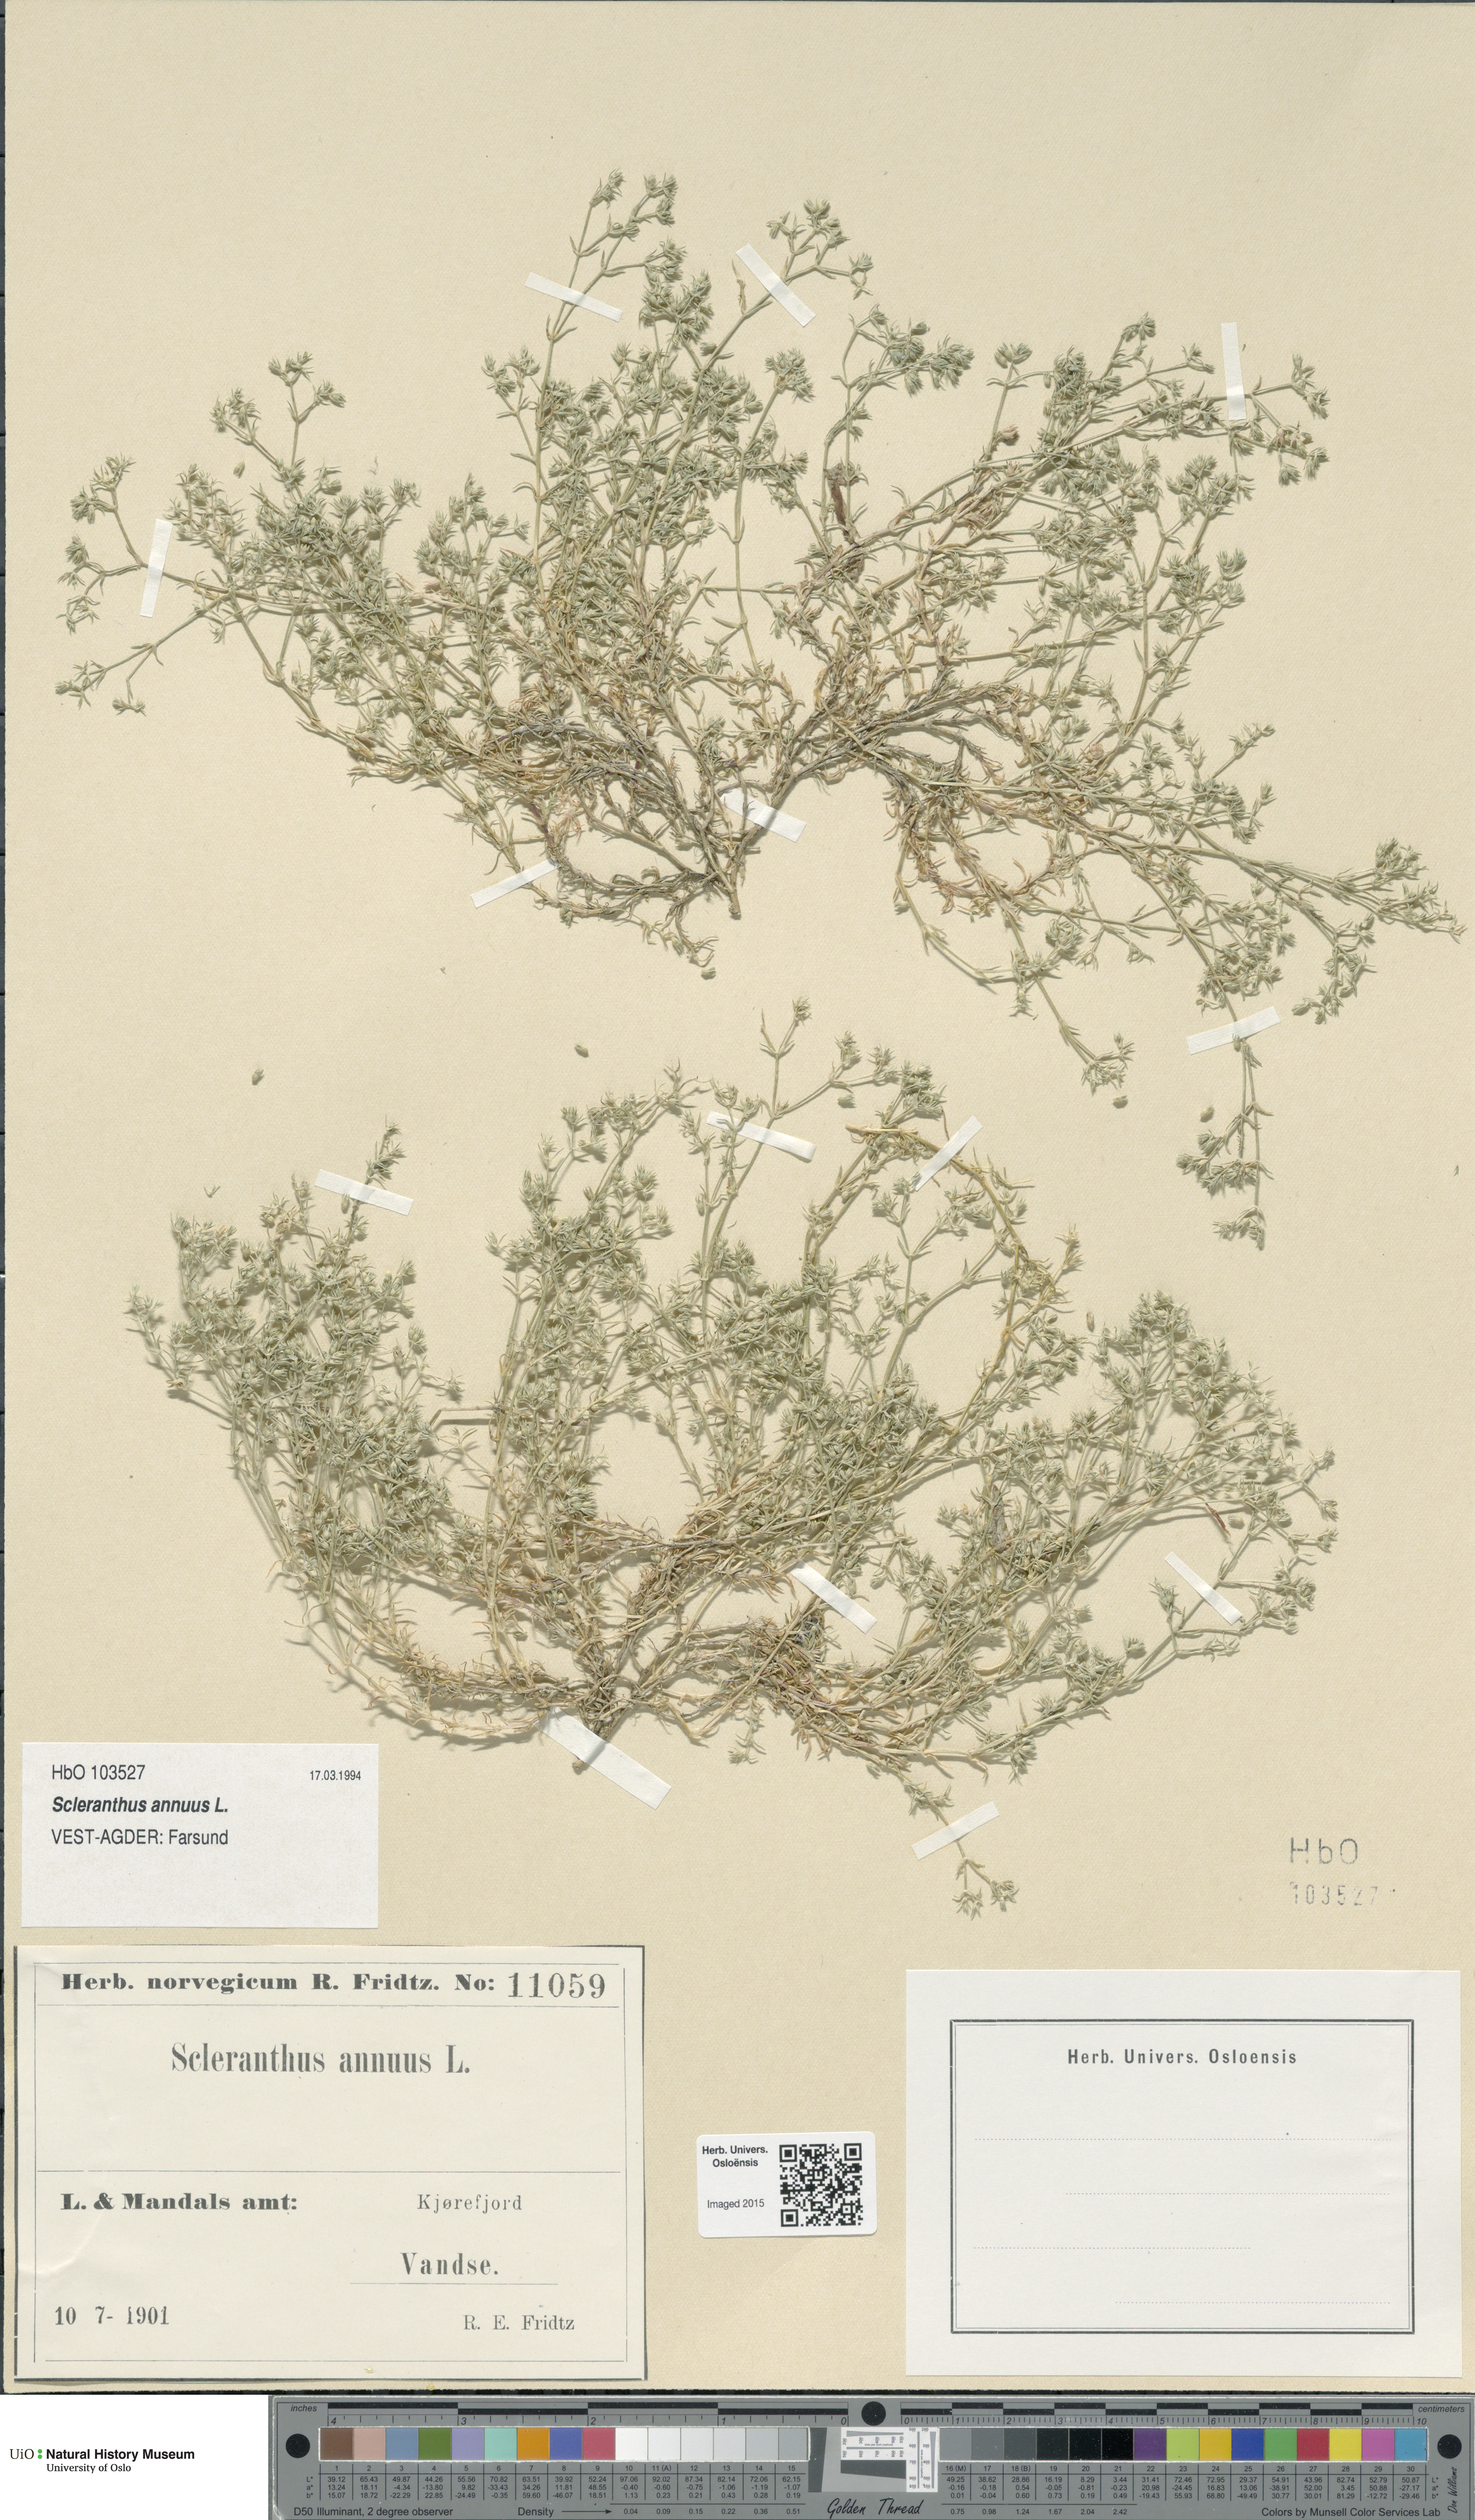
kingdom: Plantae
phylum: Tracheophyta
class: Magnoliopsida
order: Caryophyllales
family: Caryophyllaceae
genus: Scleranthus
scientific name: Scleranthus annuus
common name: Annual knawel
